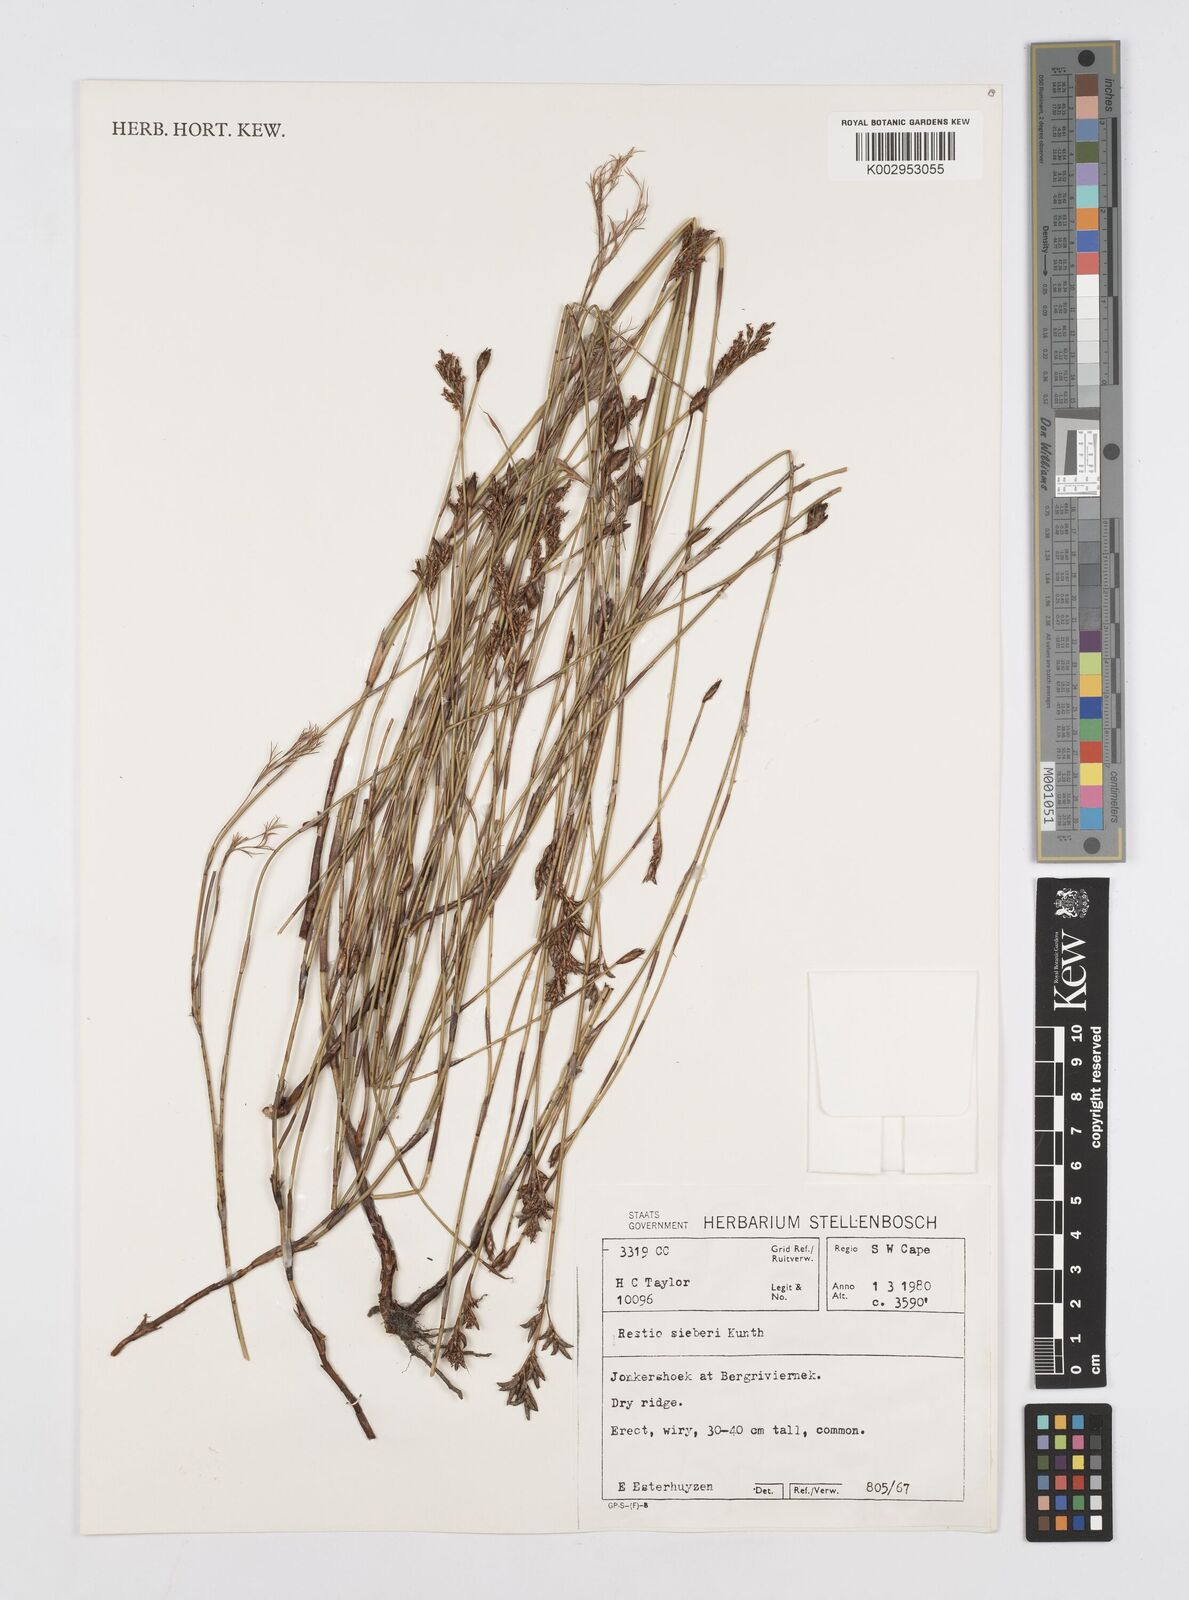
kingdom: Plantae
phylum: Tracheophyta
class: Liliopsida
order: Poales
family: Restionaceae
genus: Restio
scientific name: Restio sieberi
